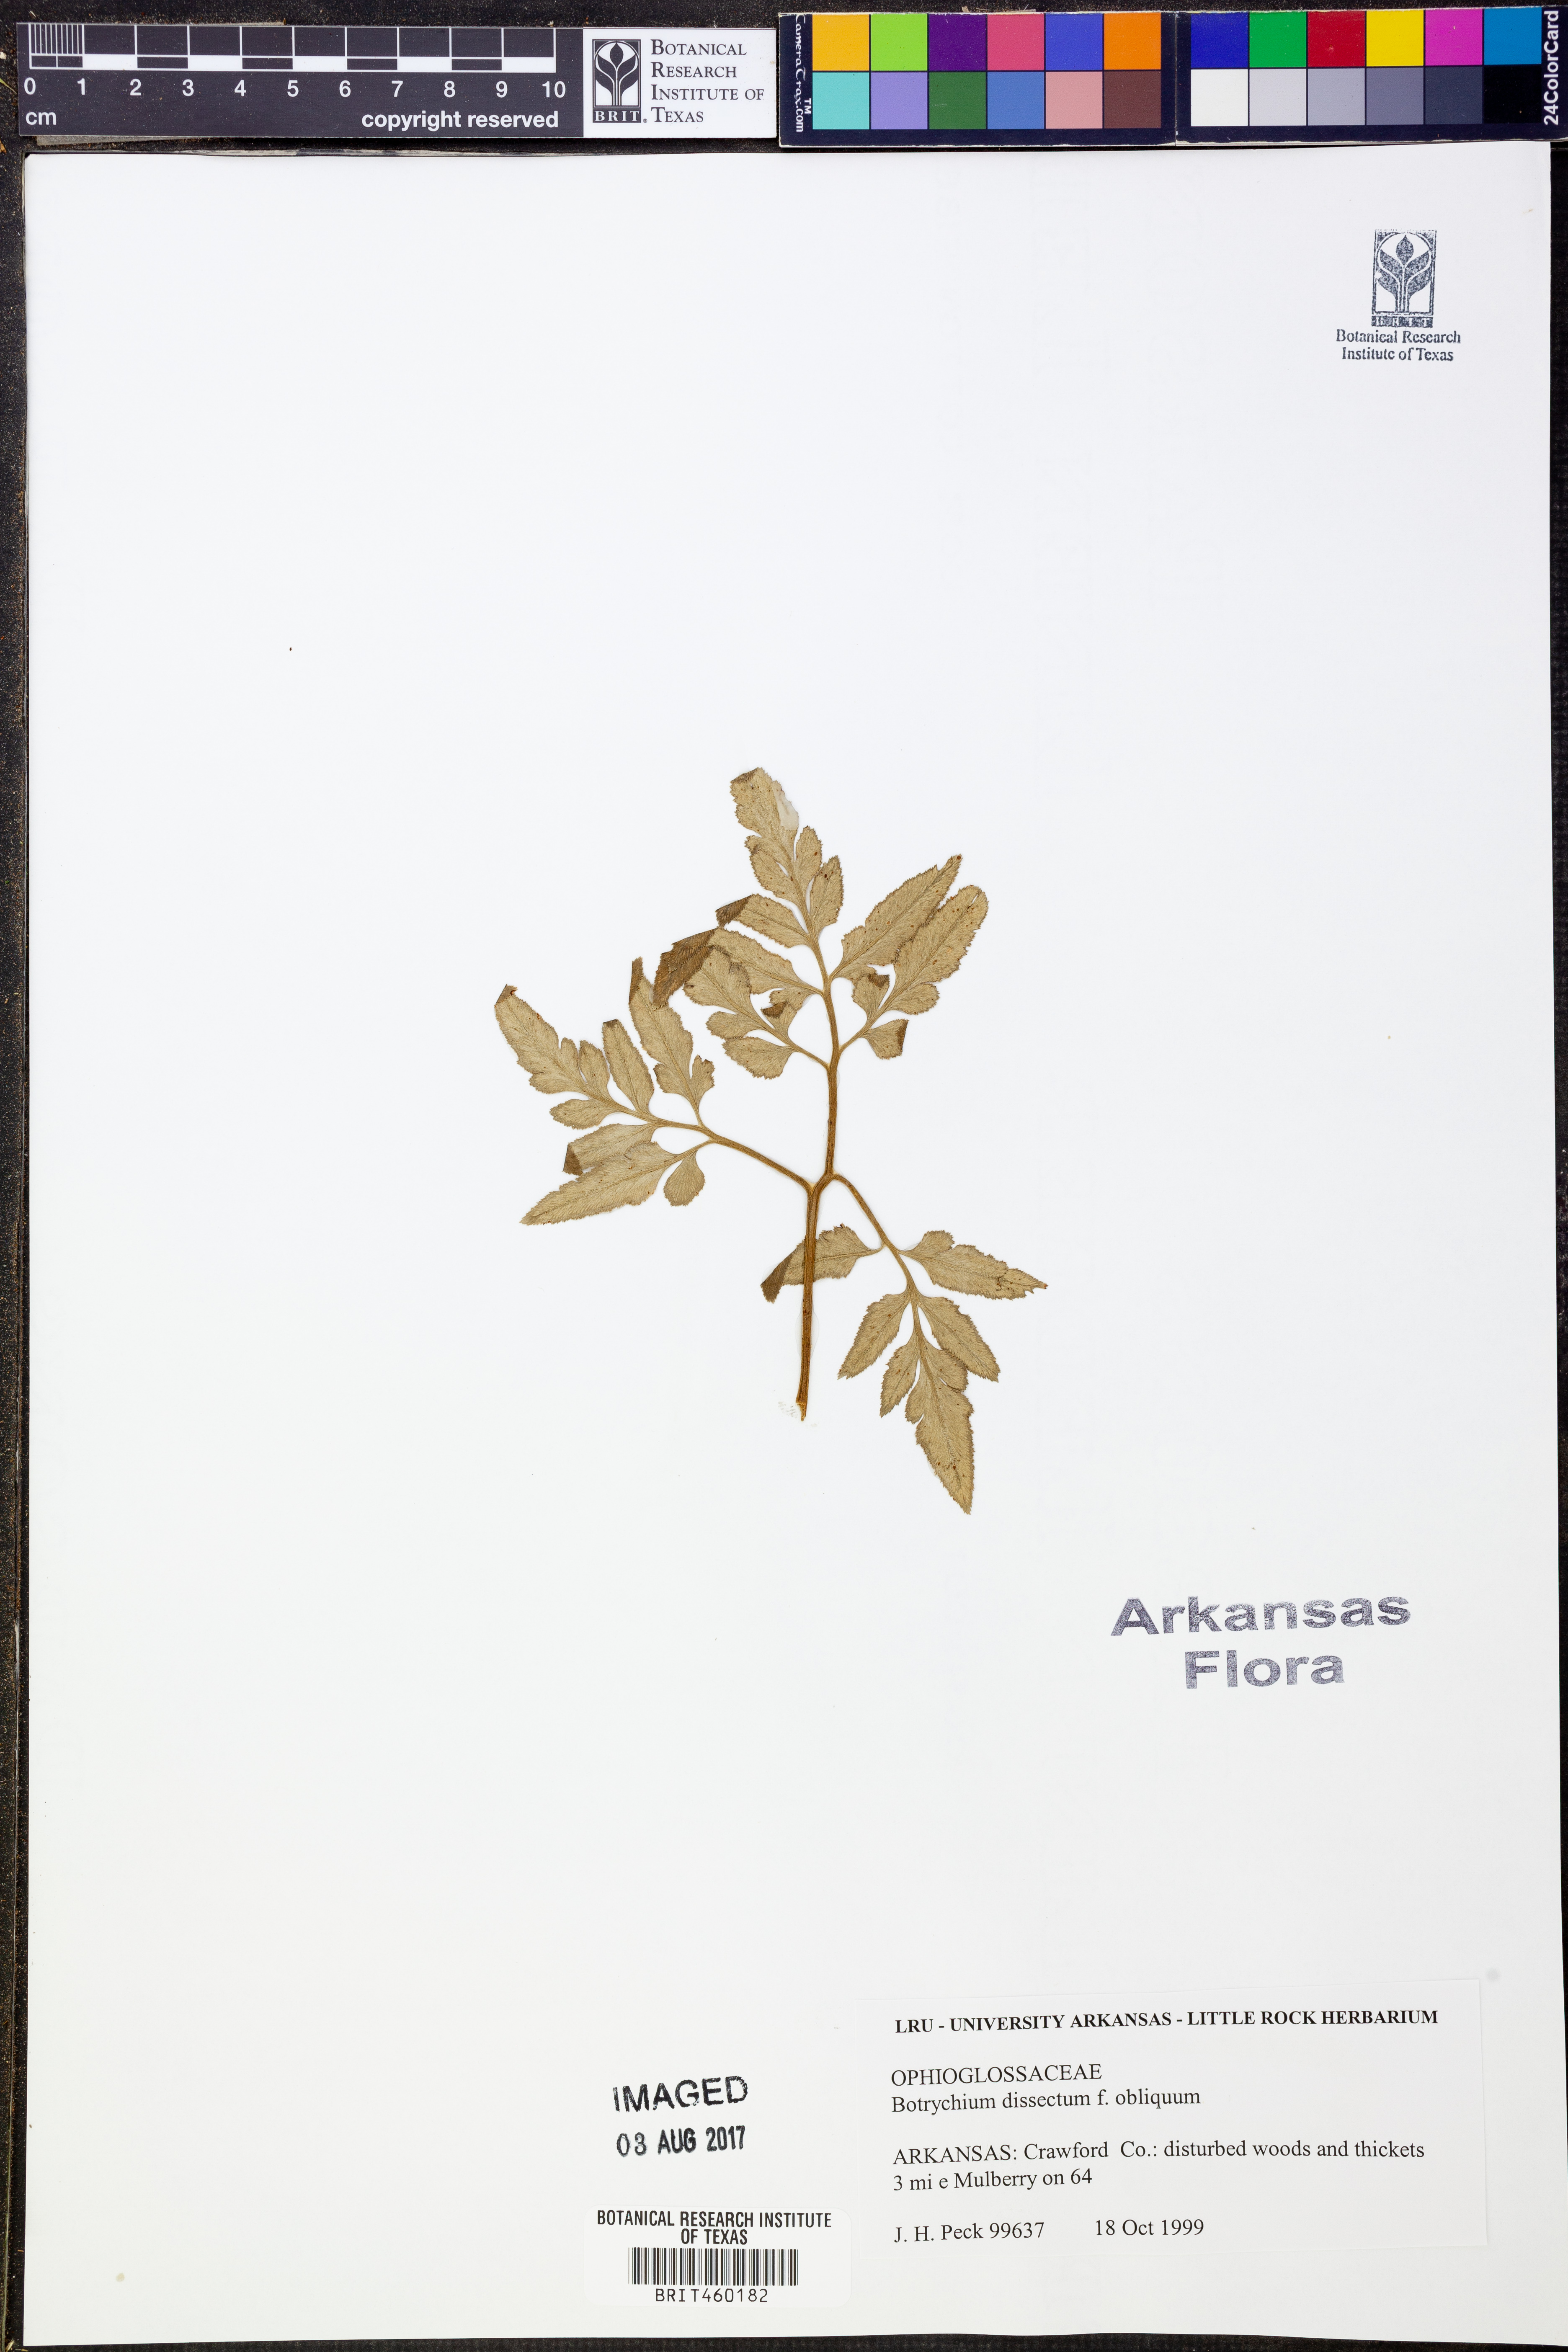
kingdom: Plantae
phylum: Tracheophyta
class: Polypodiopsida
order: Ophioglossales
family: Ophioglossaceae
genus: Sceptridium
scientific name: Sceptridium dissectum
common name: Cut-leaved grapefern
